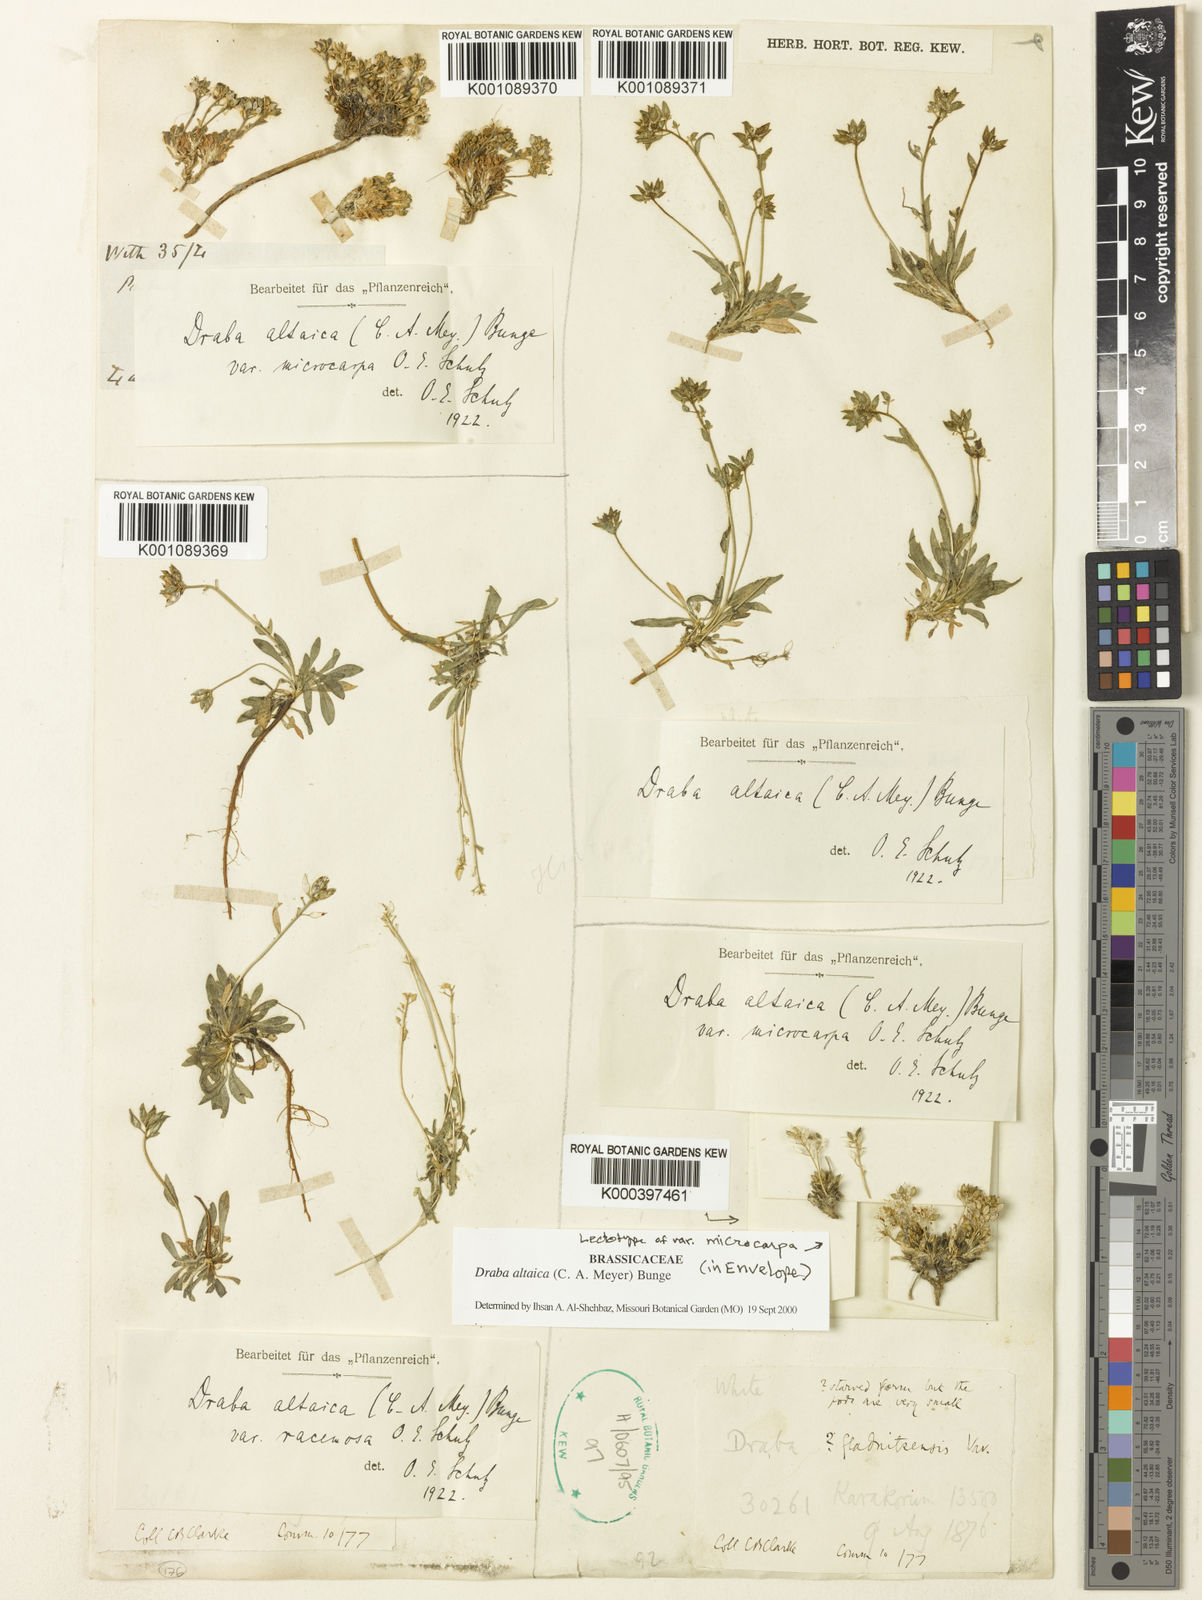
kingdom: Plantae
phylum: Tracheophyta
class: Magnoliopsida
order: Brassicales
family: Brassicaceae
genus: Draba
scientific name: Draba altaica
